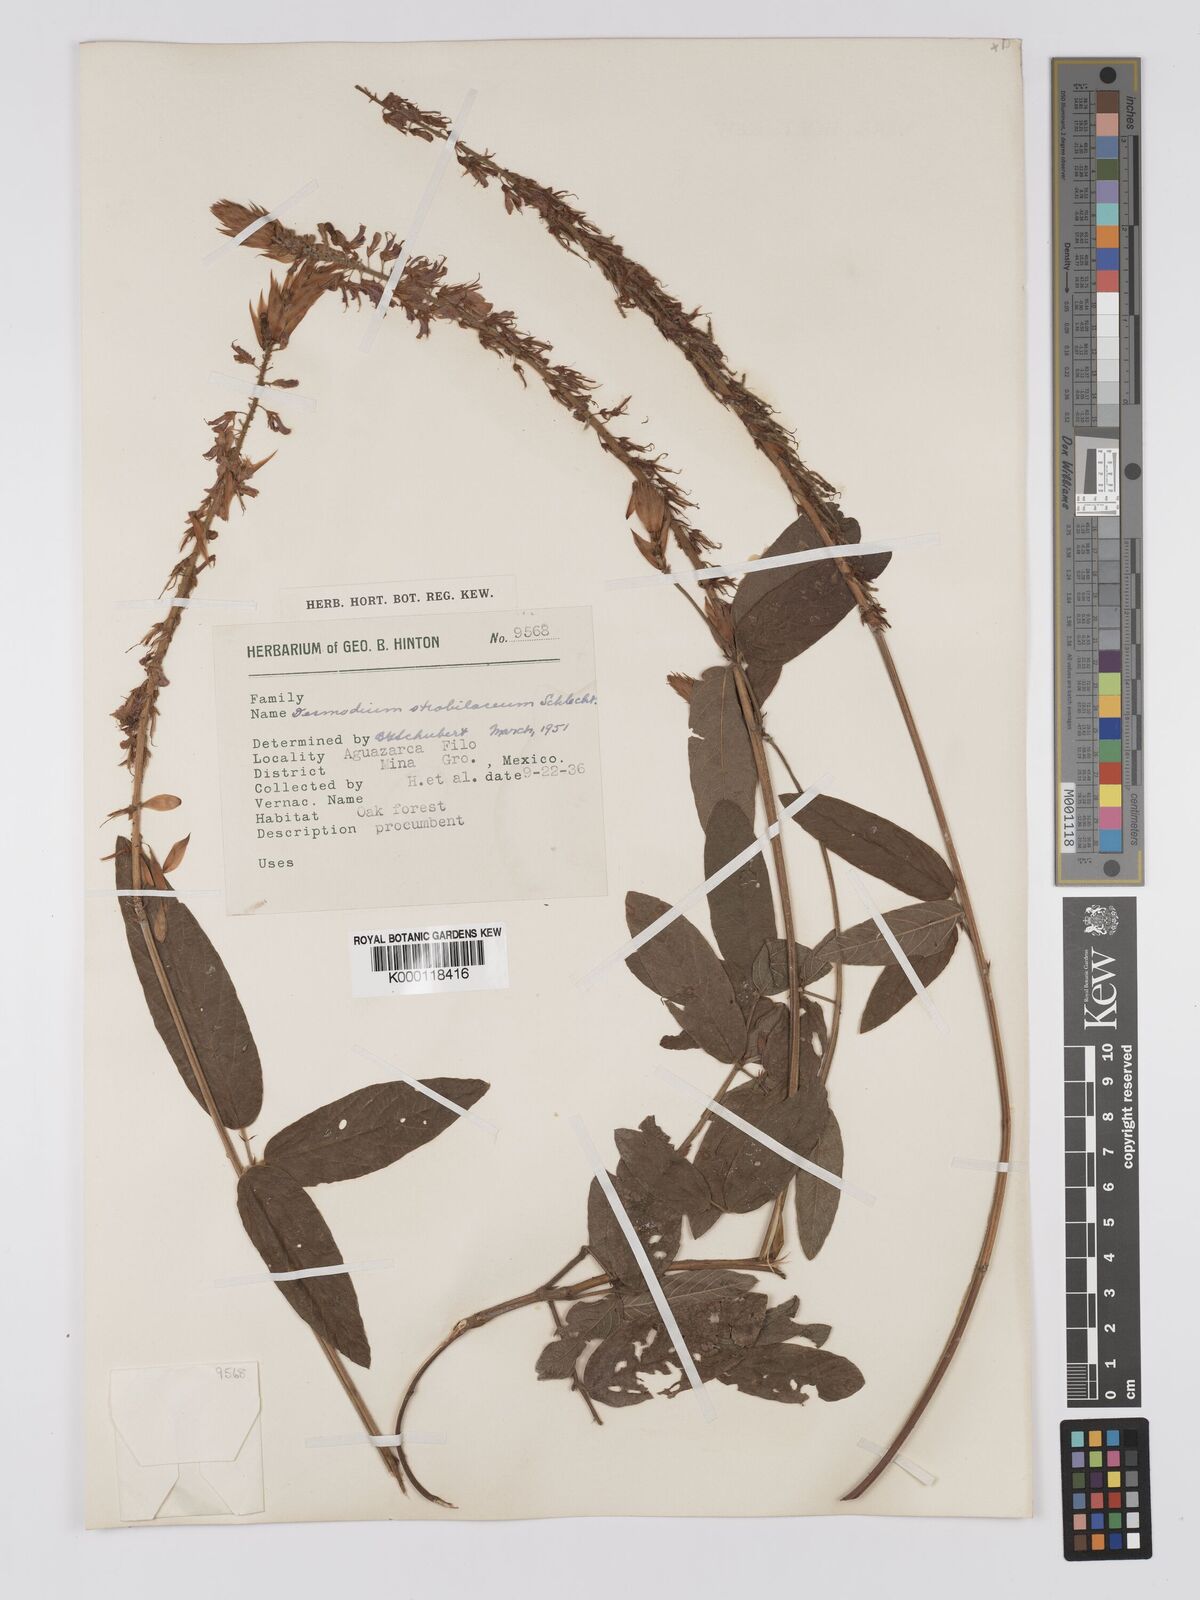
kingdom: Plantae
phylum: Tracheophyta
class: Magnoliopsida
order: Fabales
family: Fabaceae
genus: Desmodium
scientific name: Desmodium sericophyllum
